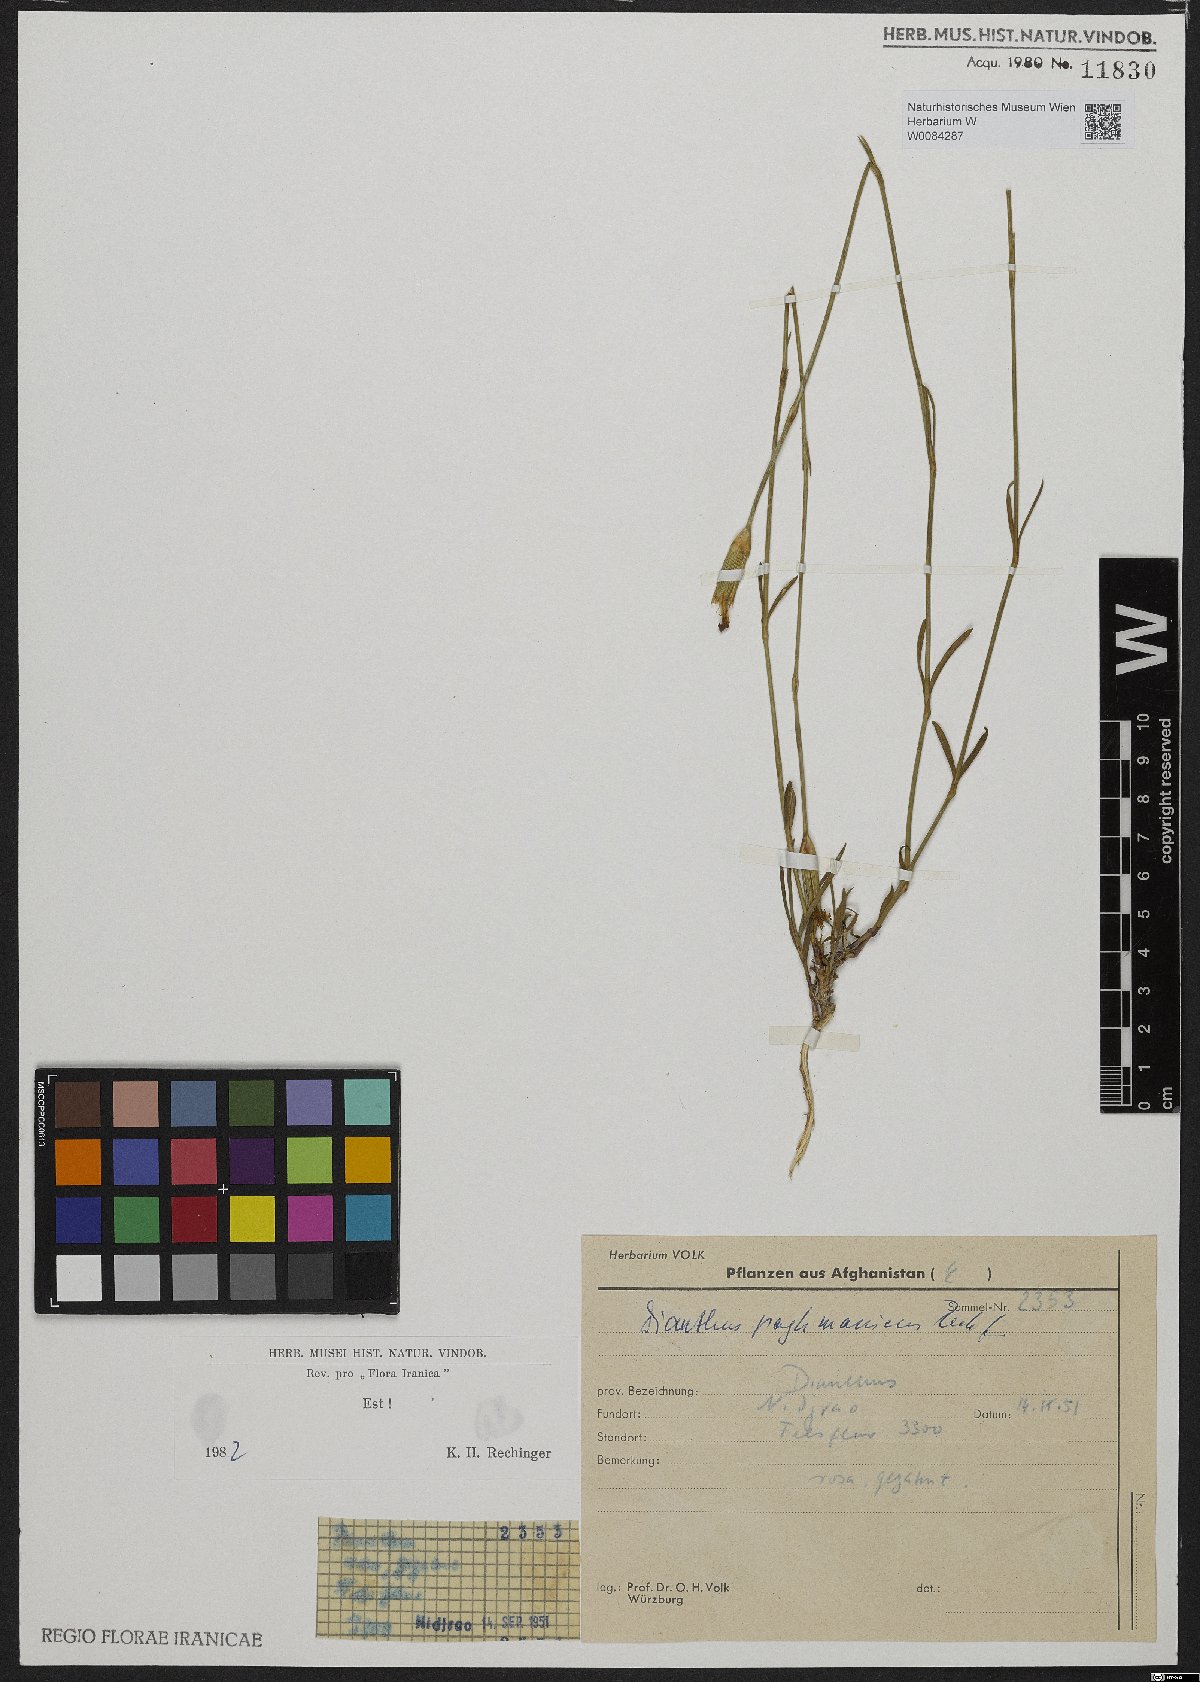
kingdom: Plantae
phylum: Tracheophyta
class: Magnoliopsida
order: Caryophyllales
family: Caryophyllaceae
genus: Dianthus
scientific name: Dianthus paghmanicus
